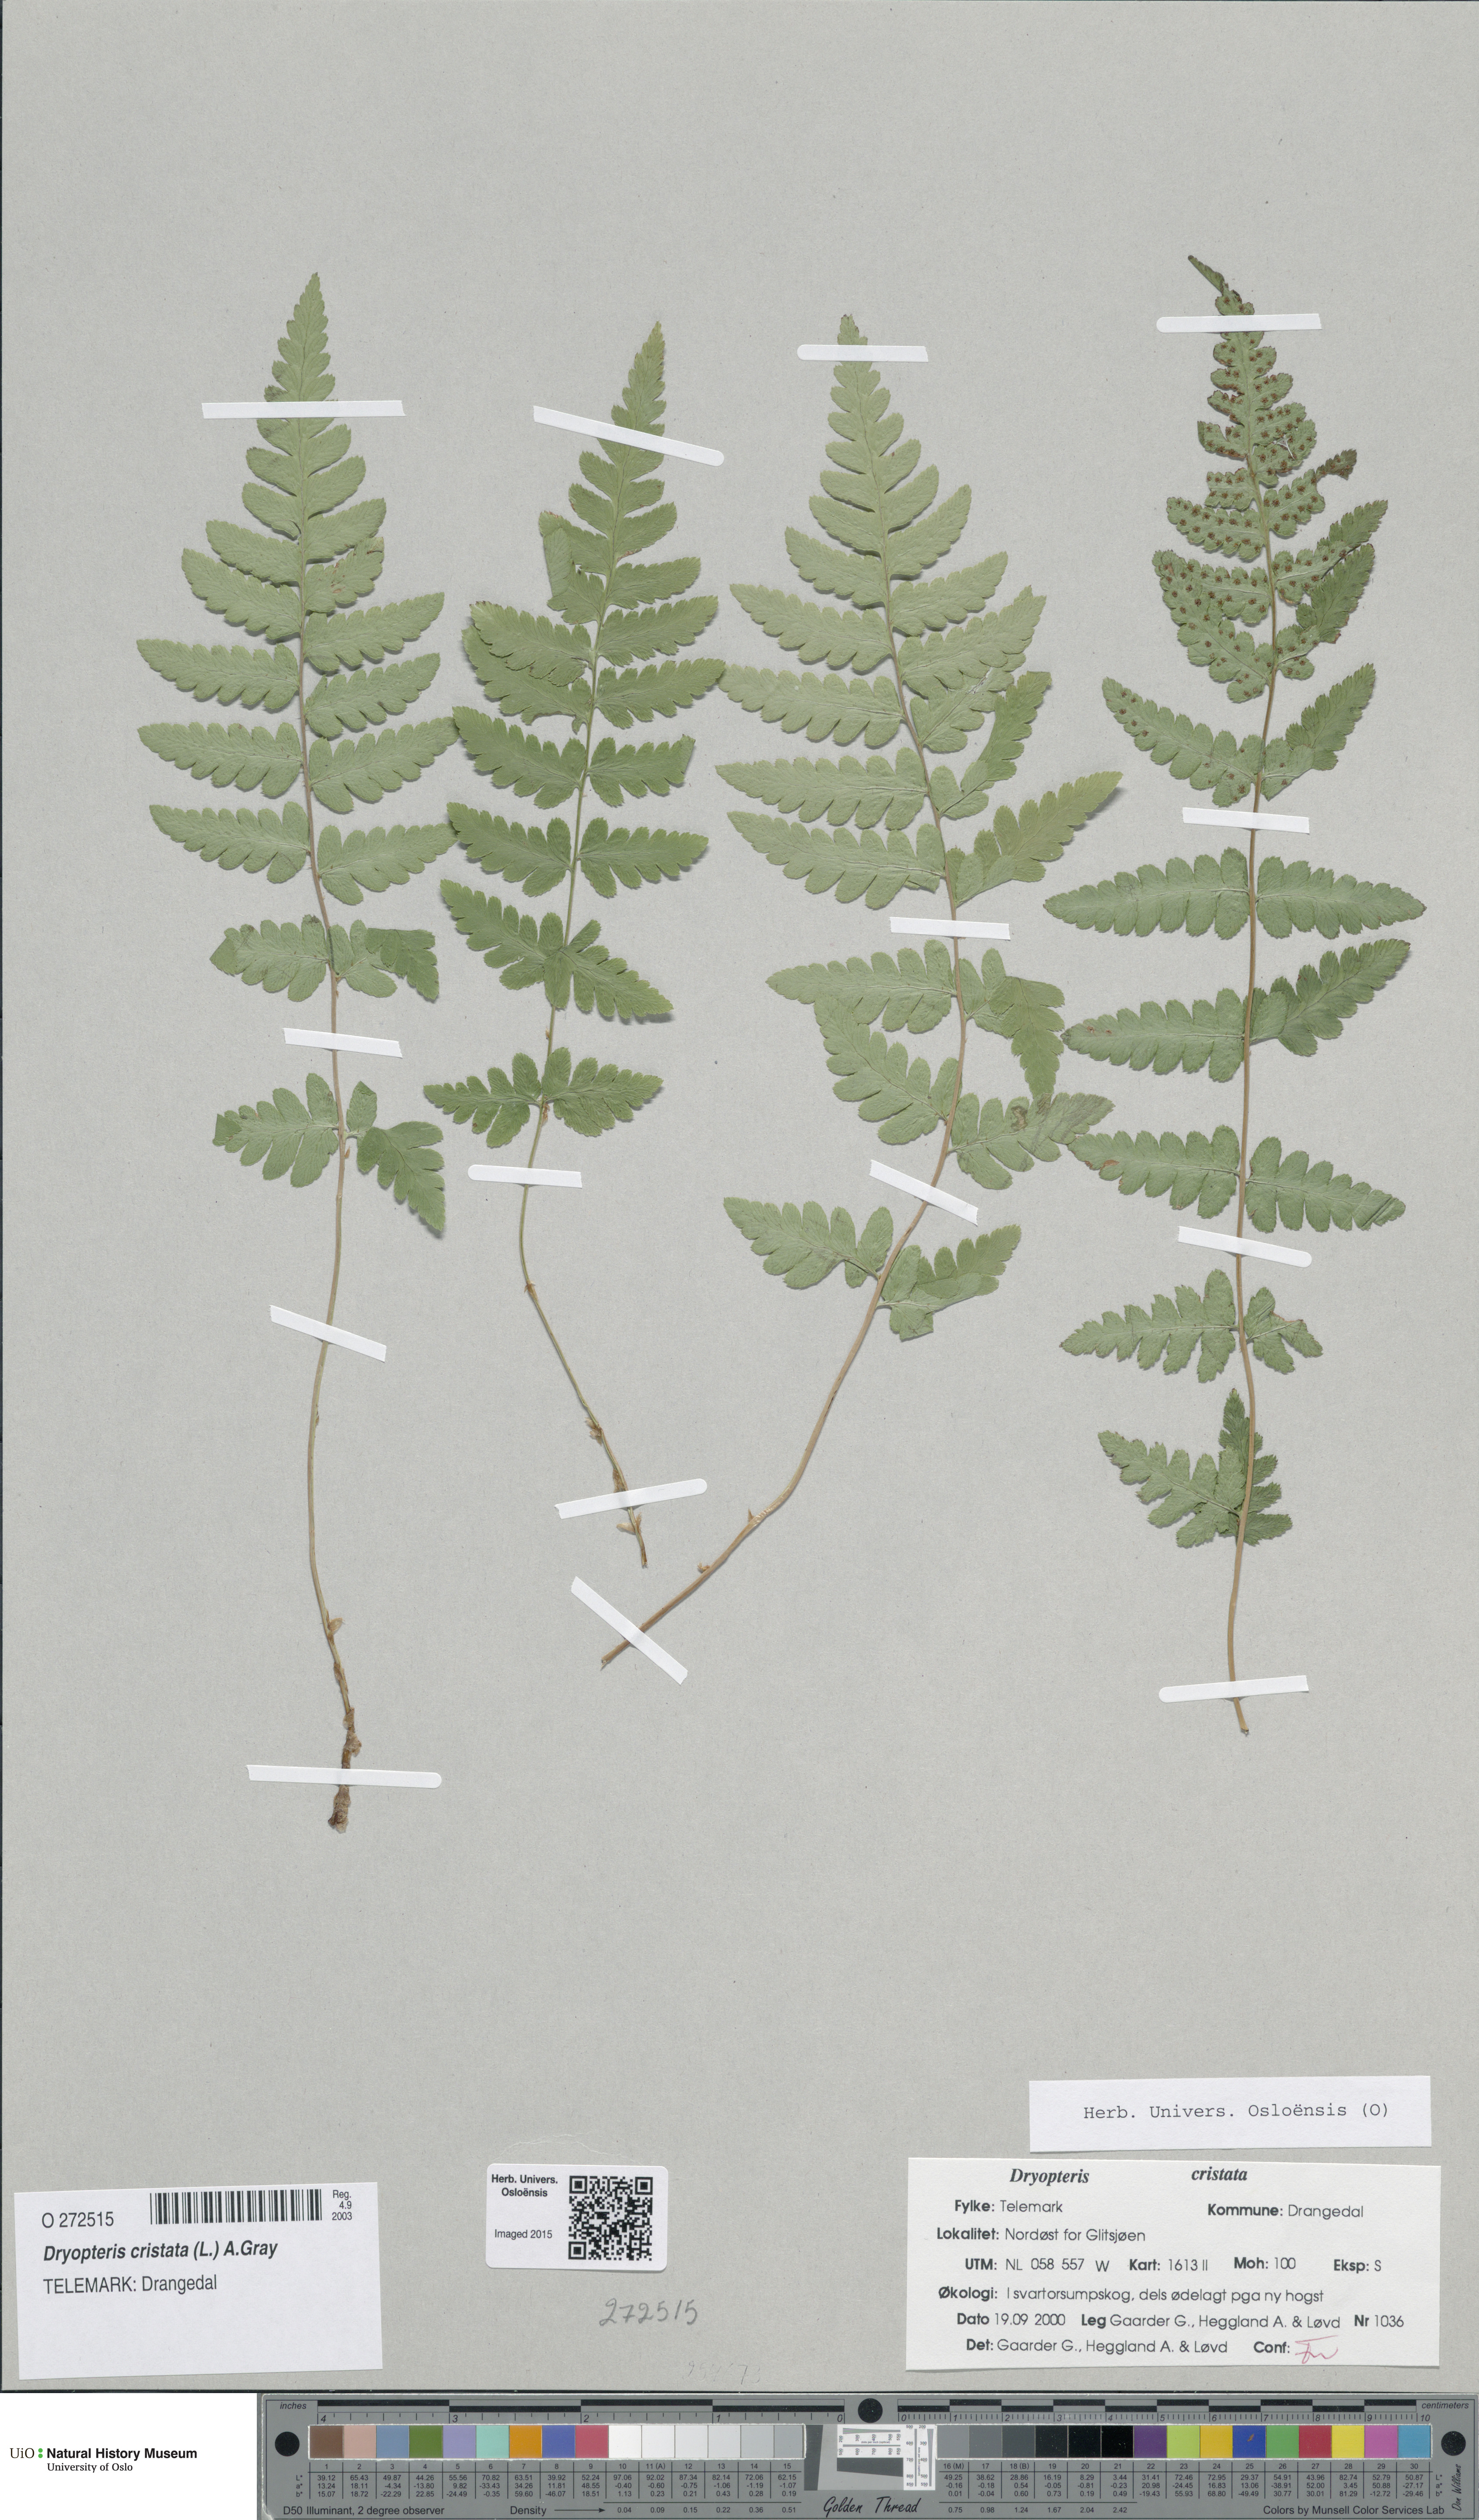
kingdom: Plantae
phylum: Tracheophyta
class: Polypodiopsida
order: Polypodiales
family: Dryopteridaceae
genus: Dryopteris
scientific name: Dryopteris cristata
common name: Crested wood fern
